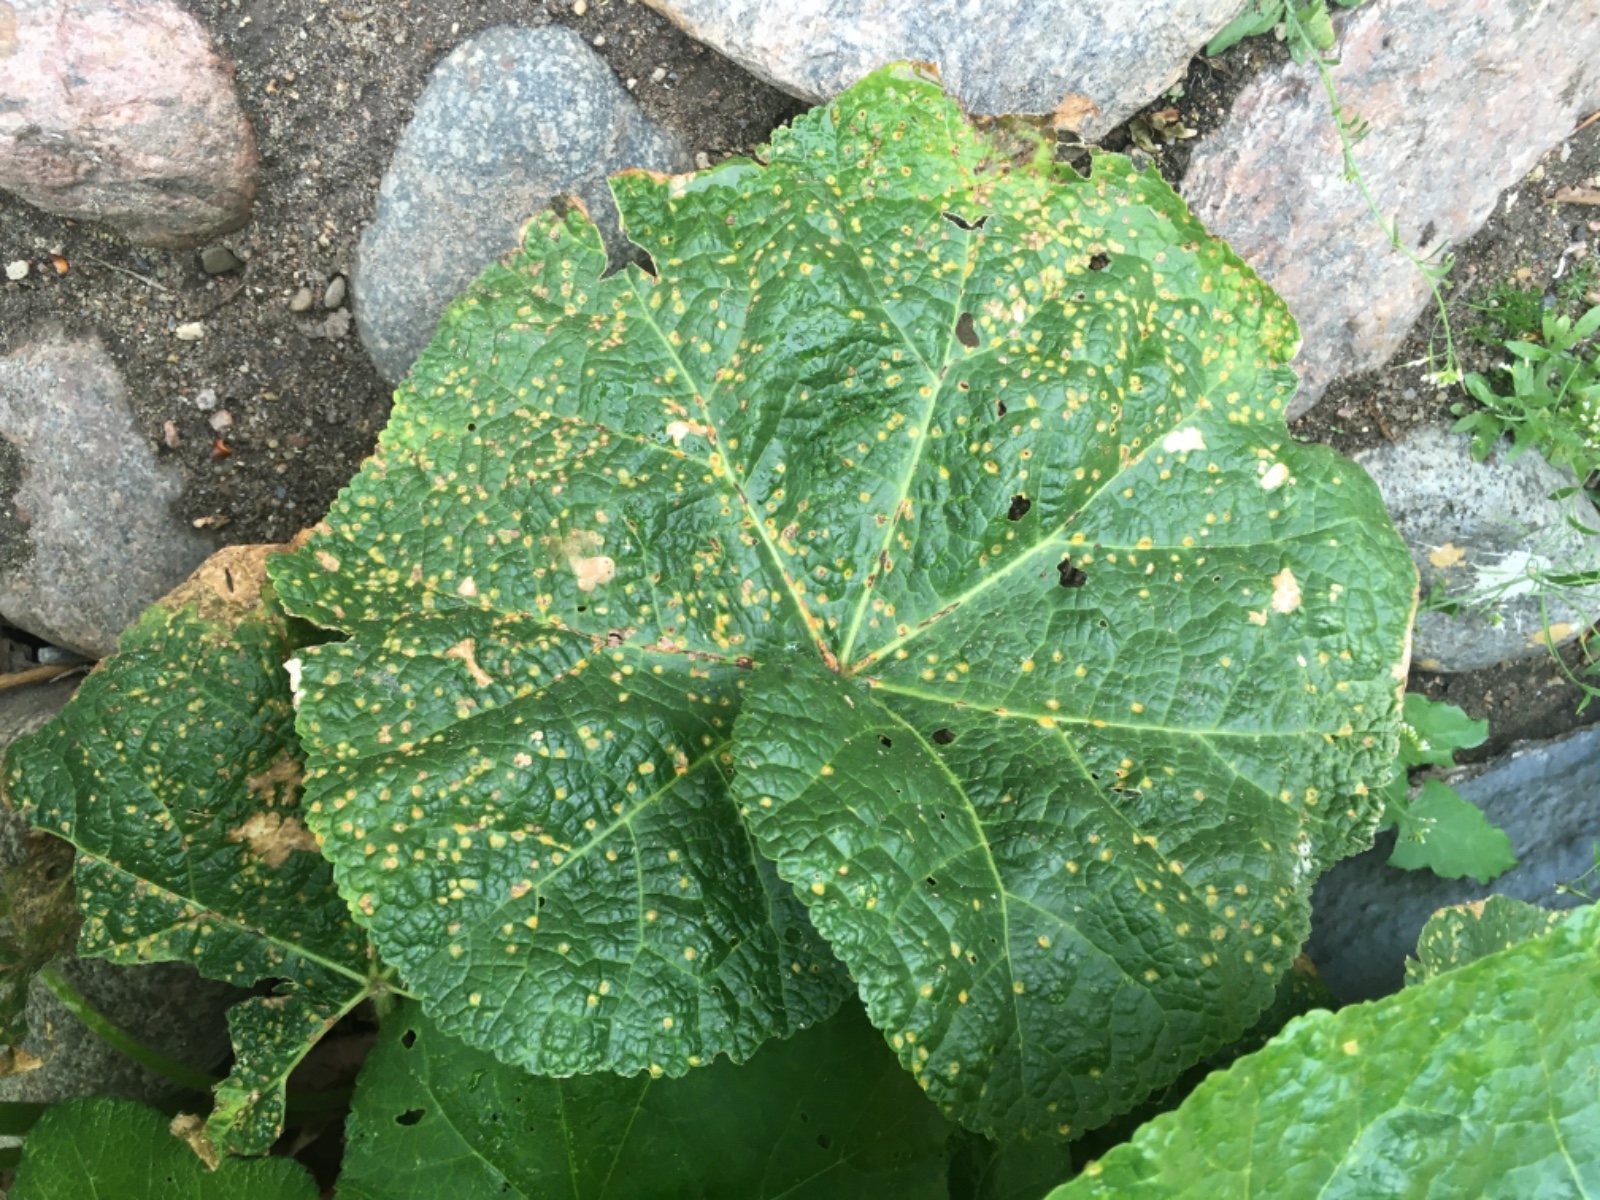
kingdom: Fungi
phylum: Basidiomycota
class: Pucciniomycetes
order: Pucciniales
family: Pucciniaceae
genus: Puccinia
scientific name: Puccinia malvacearum
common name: stokrose-tvecellerust
